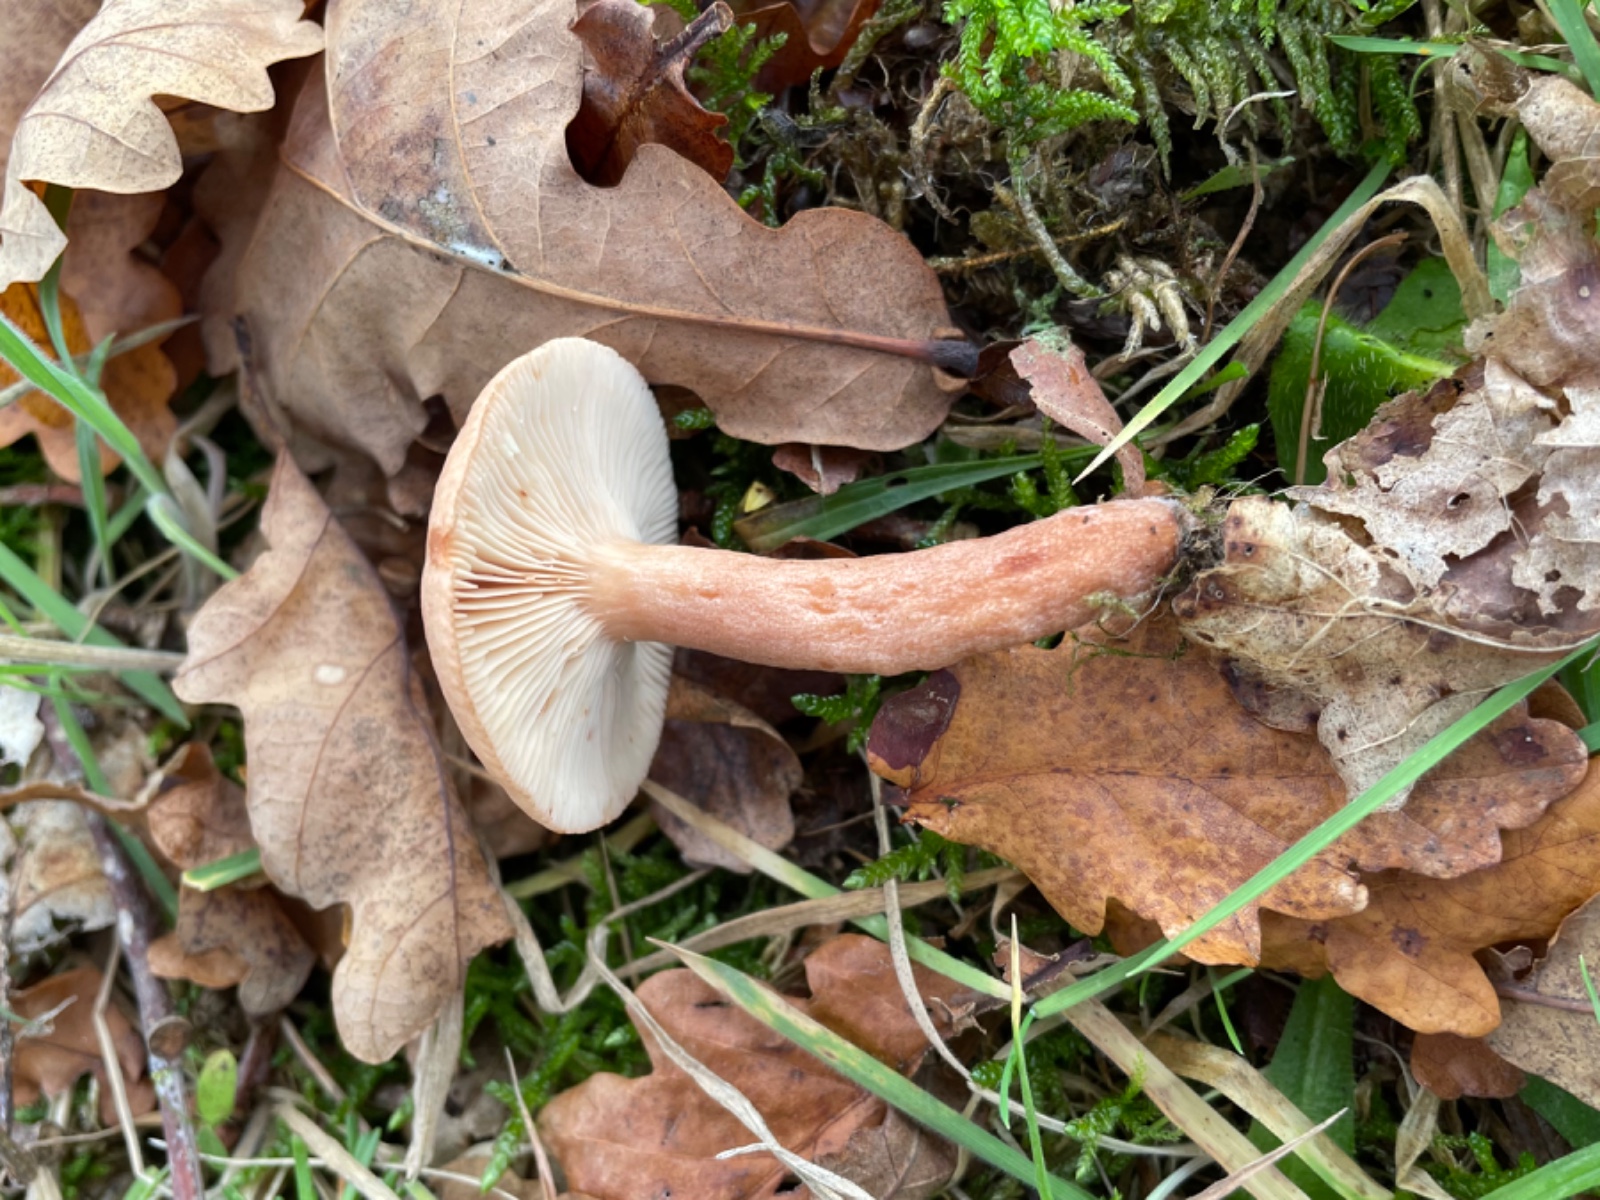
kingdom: Fungi
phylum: Basidiomycota
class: Agaricomycetes
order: Russulales
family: Russulaceae
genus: Lactarius
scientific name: Lactarius quietus
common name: ege-mælkehat
